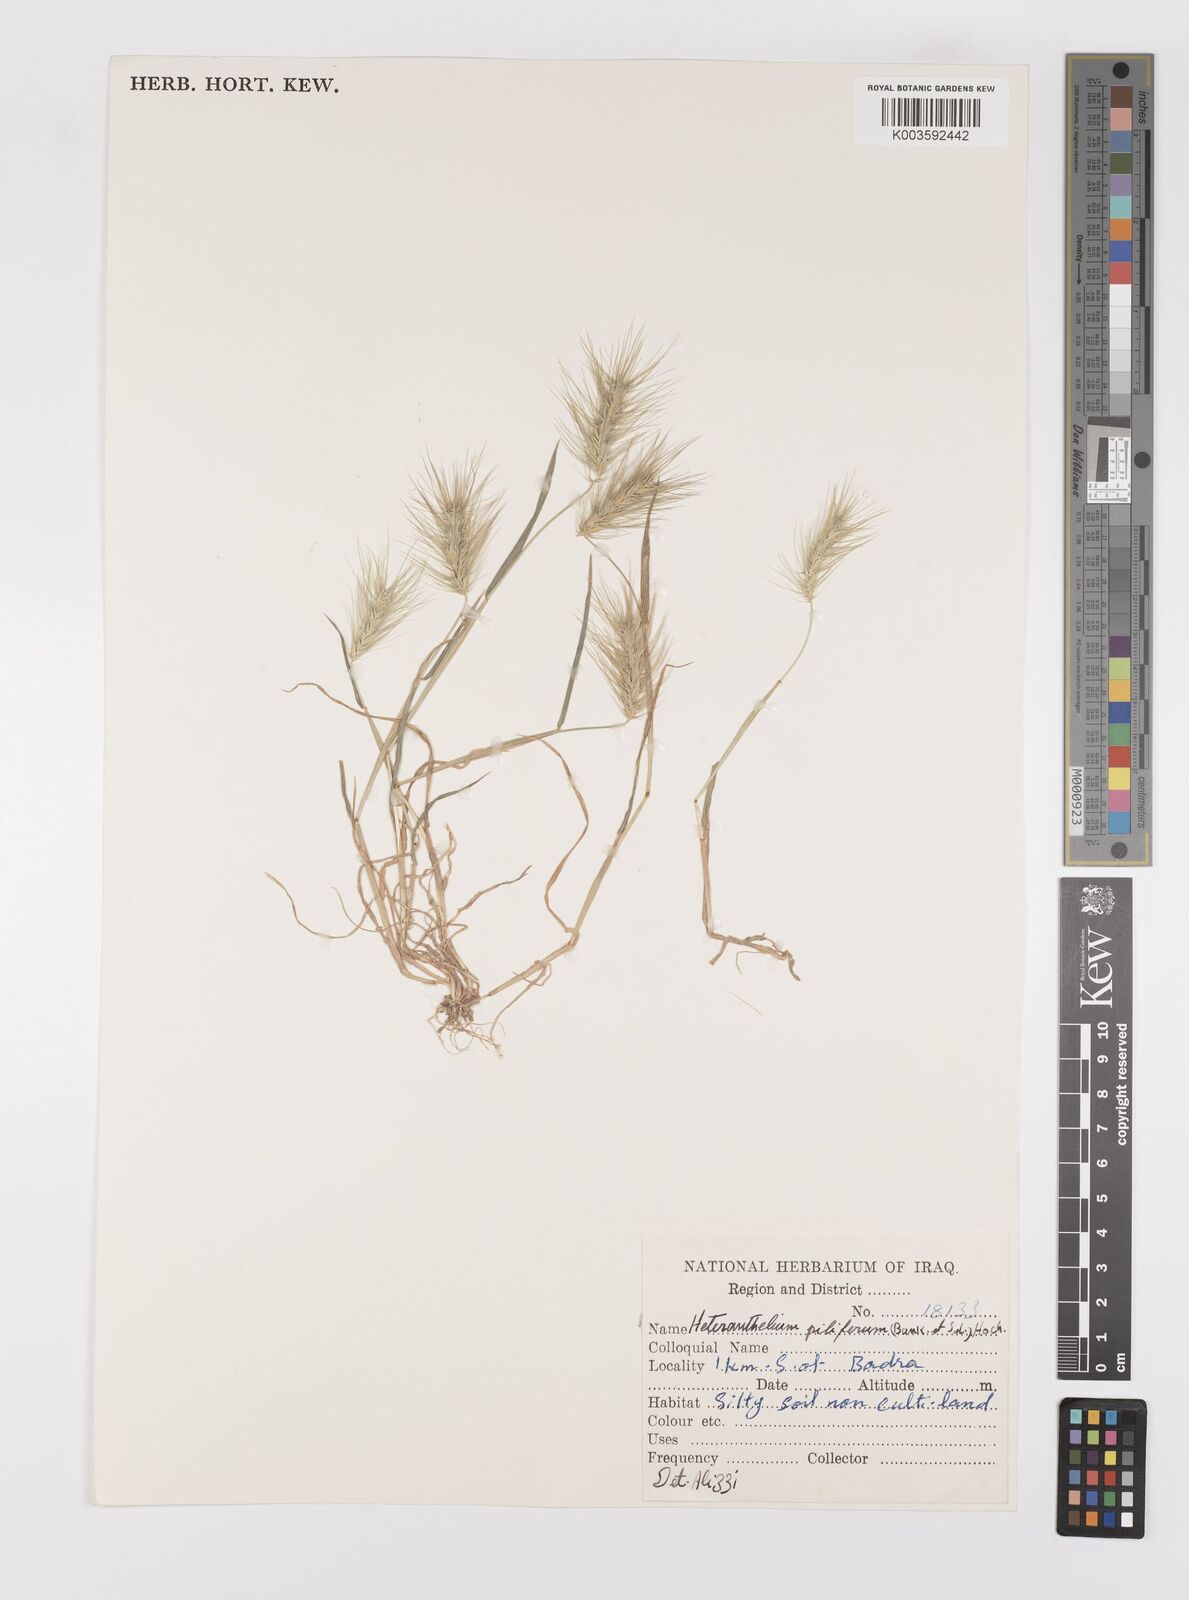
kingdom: Plantae
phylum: Tracheophyta
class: Liliopsida
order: Poales
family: Poaceae
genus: Heteranthelium
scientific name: Heteranthelium piliferum
